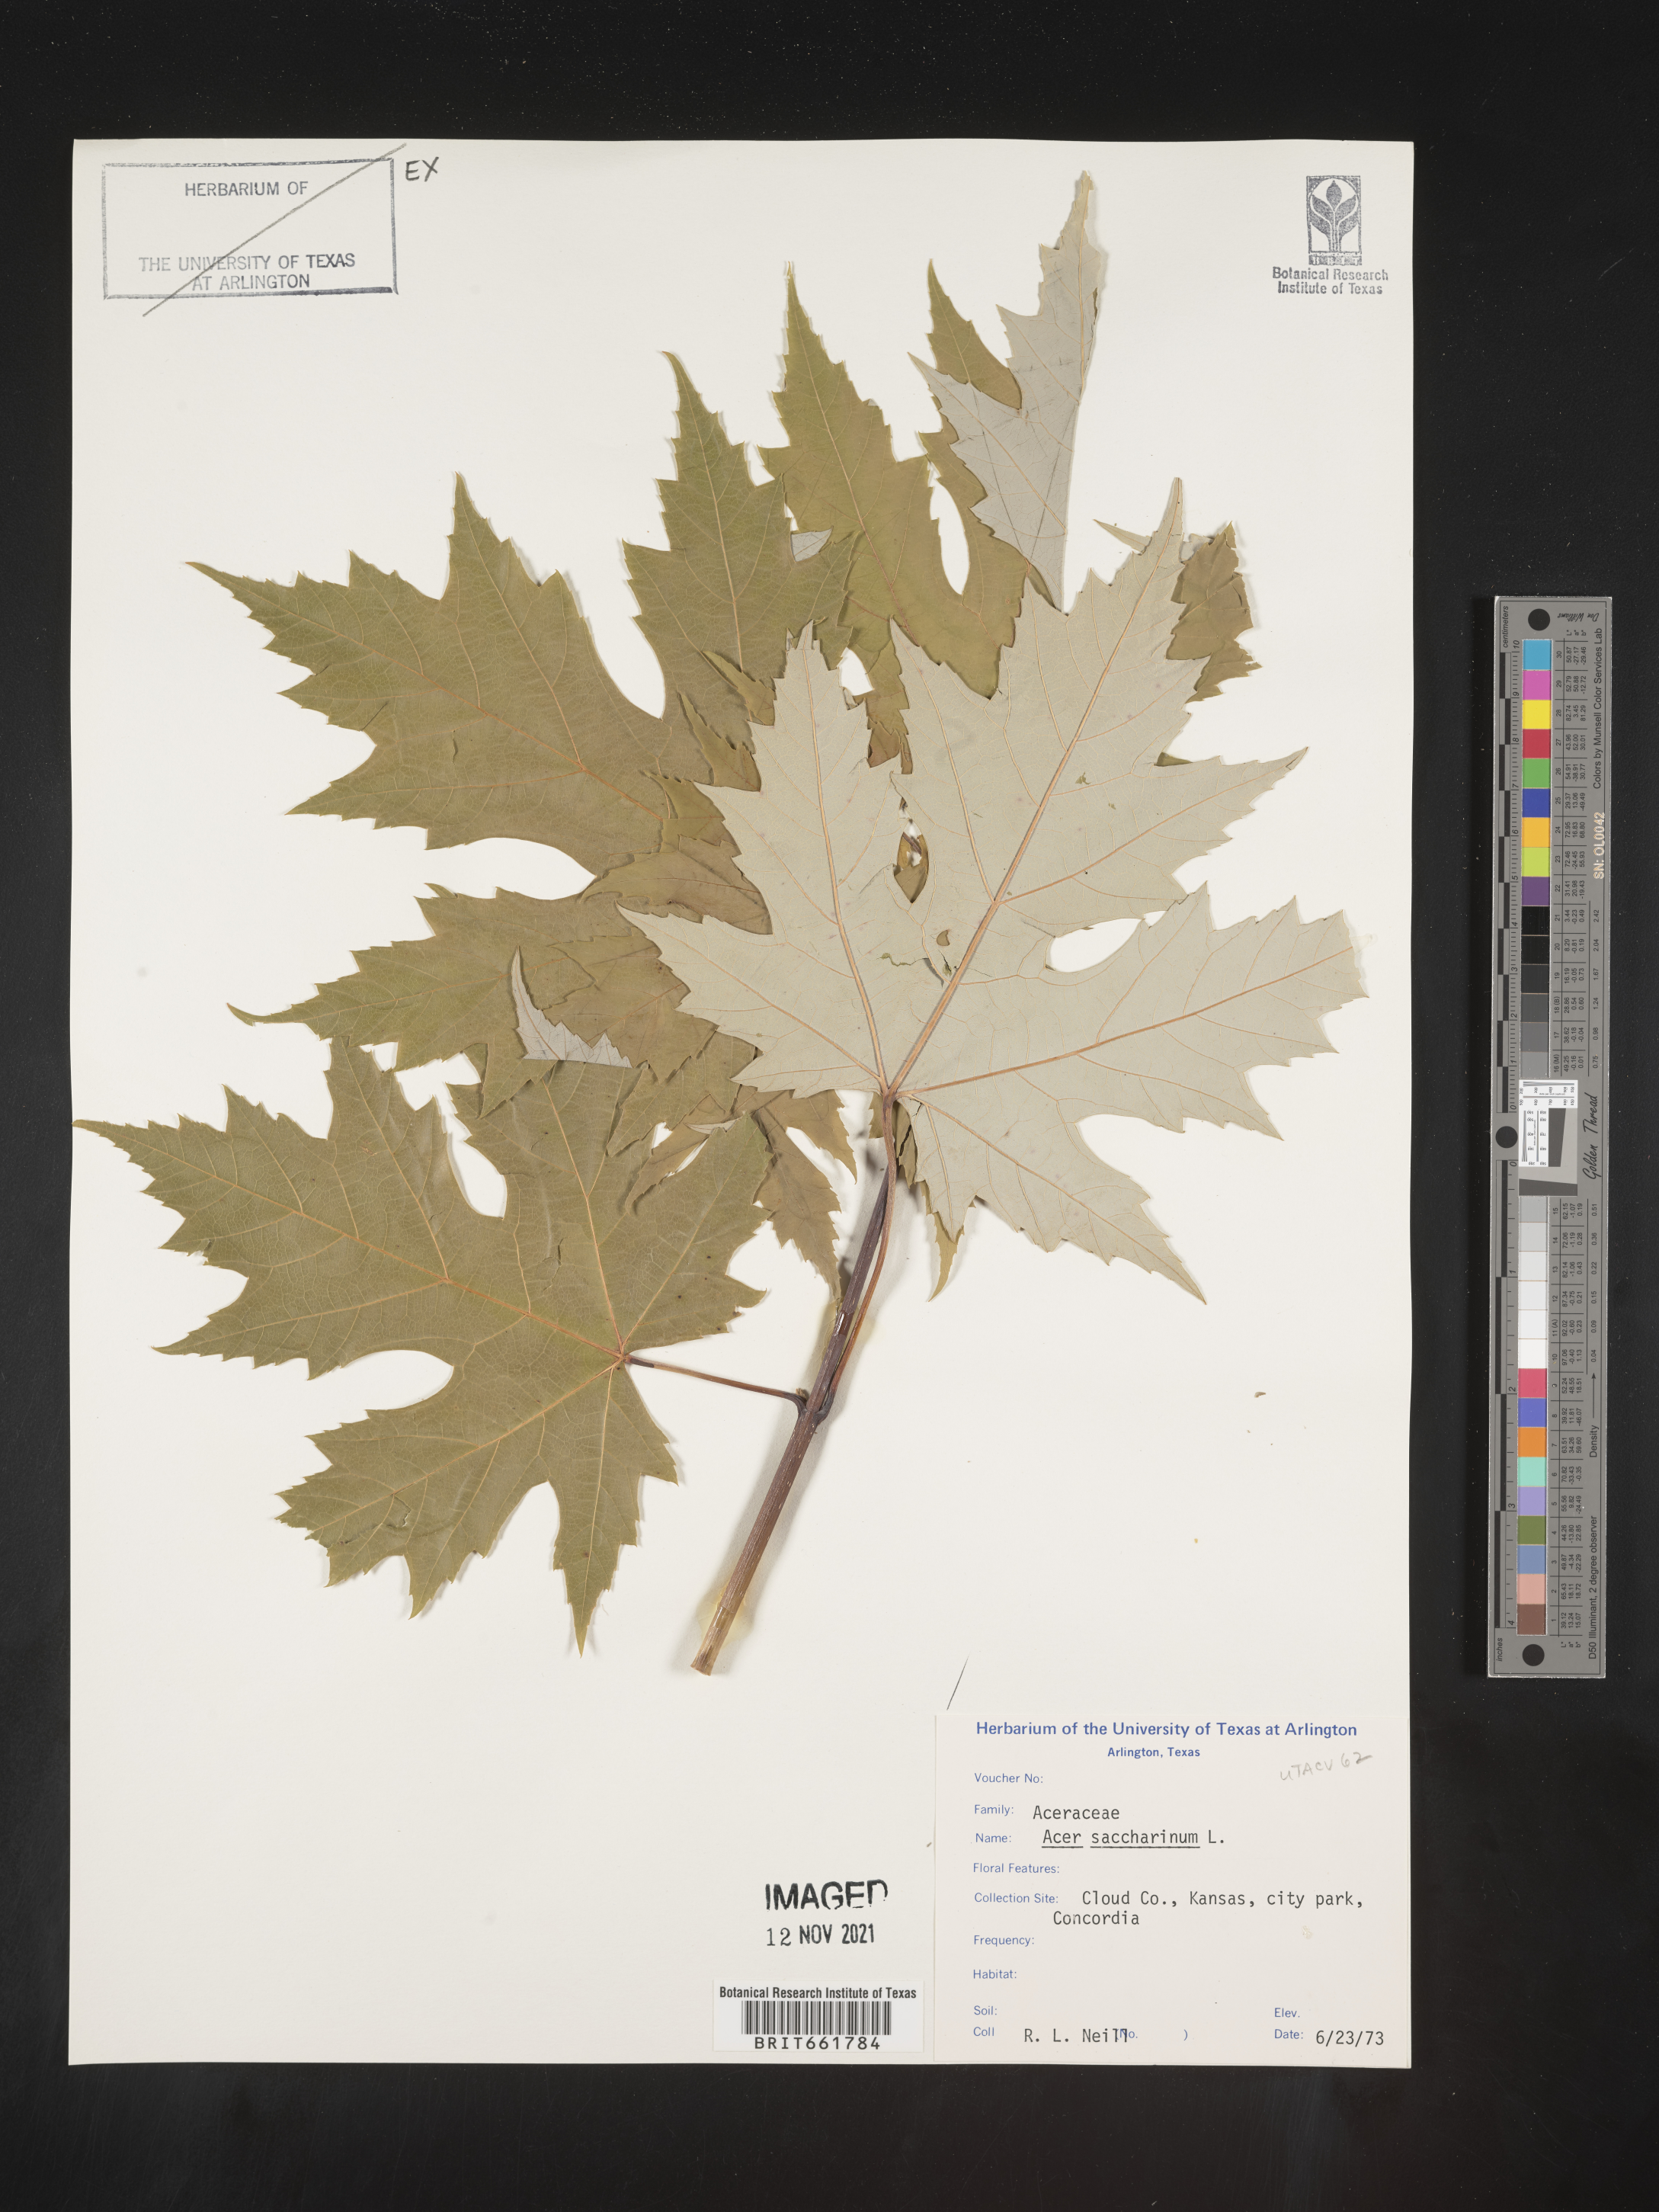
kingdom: Plantae
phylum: Tracheophyta
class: Magnoliopsida
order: Sapindales
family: Sapindaceae
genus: Acer
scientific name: Acer saccharinum
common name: Silver maple
